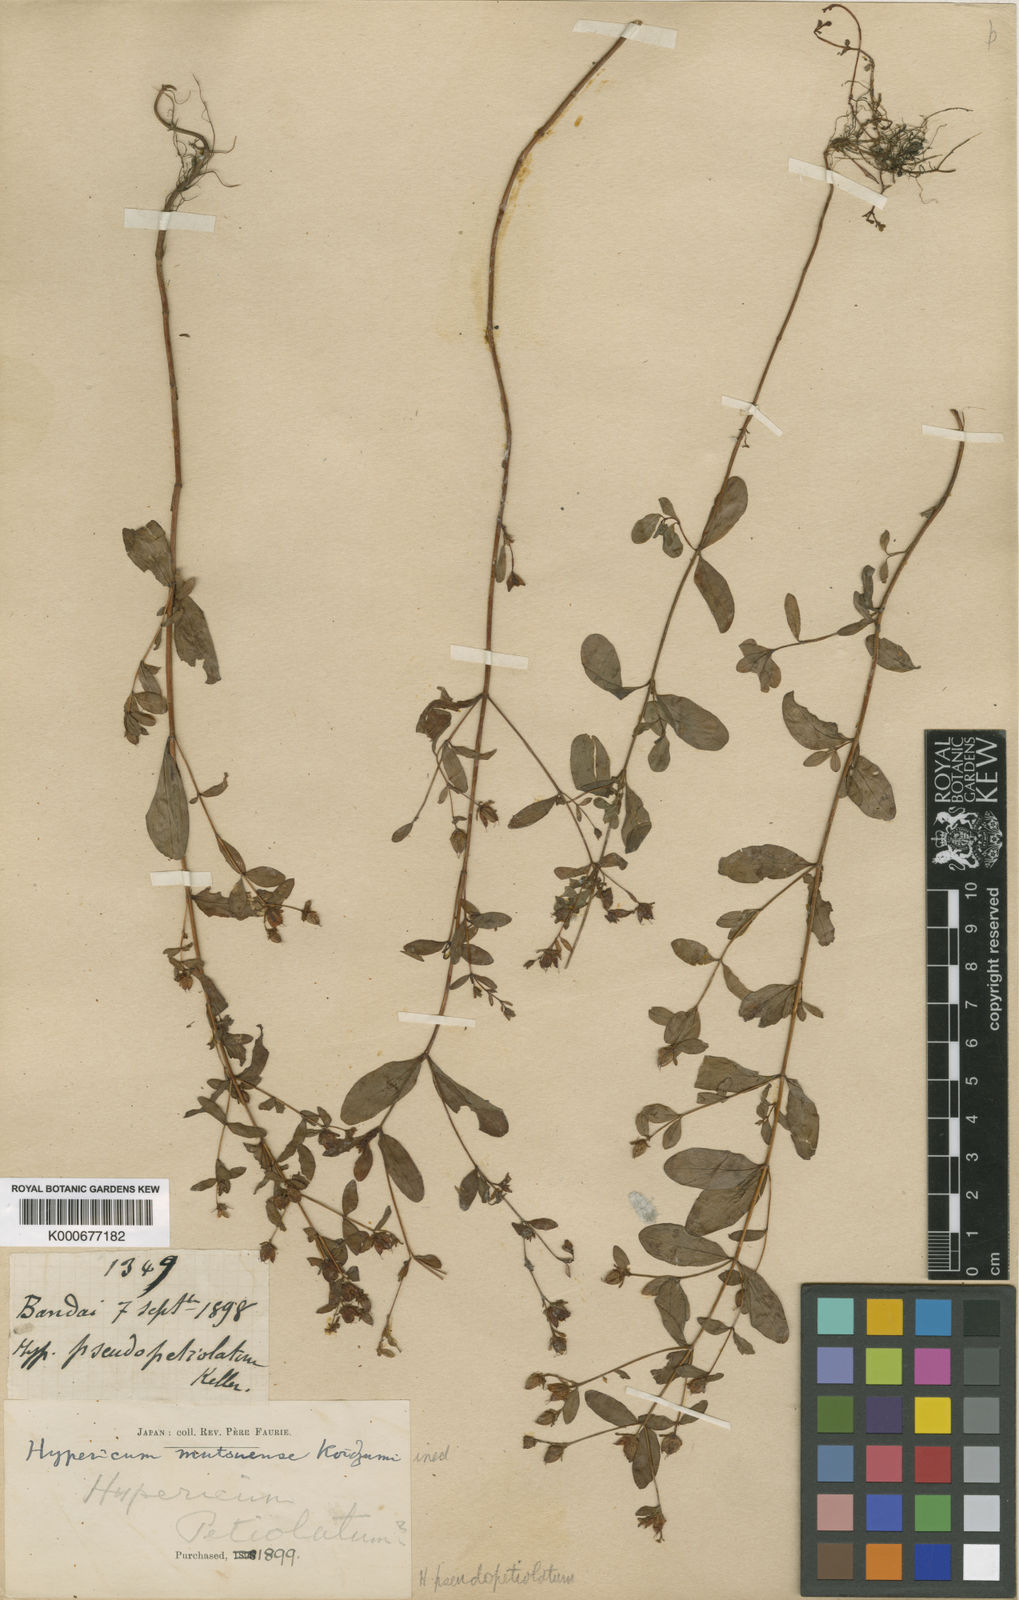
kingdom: Plantae
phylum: Tracheophyta
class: Magnoliopsida
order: Malpighiales
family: Hypericaceae
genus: Hypericum
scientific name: Hypericum pseudopetiolatum
